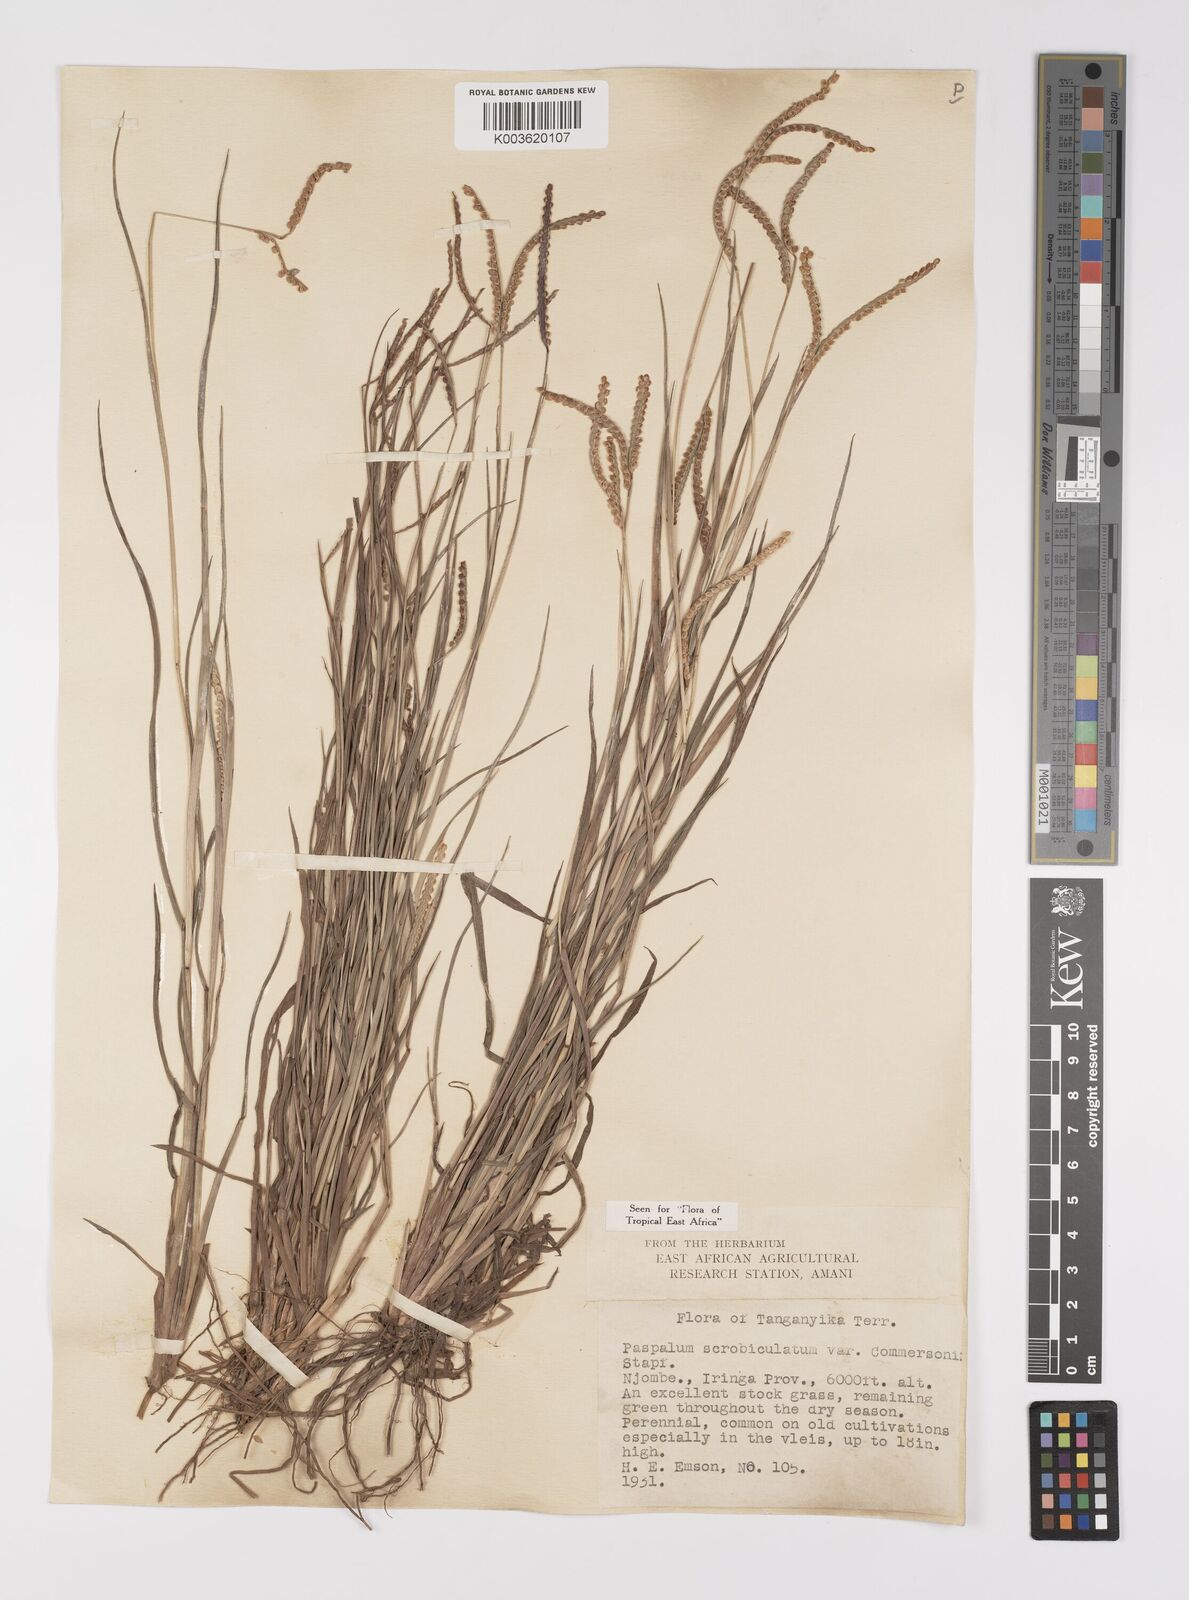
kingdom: Plantae
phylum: Tracheophyta
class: Liliopsida
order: Poales
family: Poaceae
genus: Paspalum
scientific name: Paspalum scrobiculatum
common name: Kodo millet
